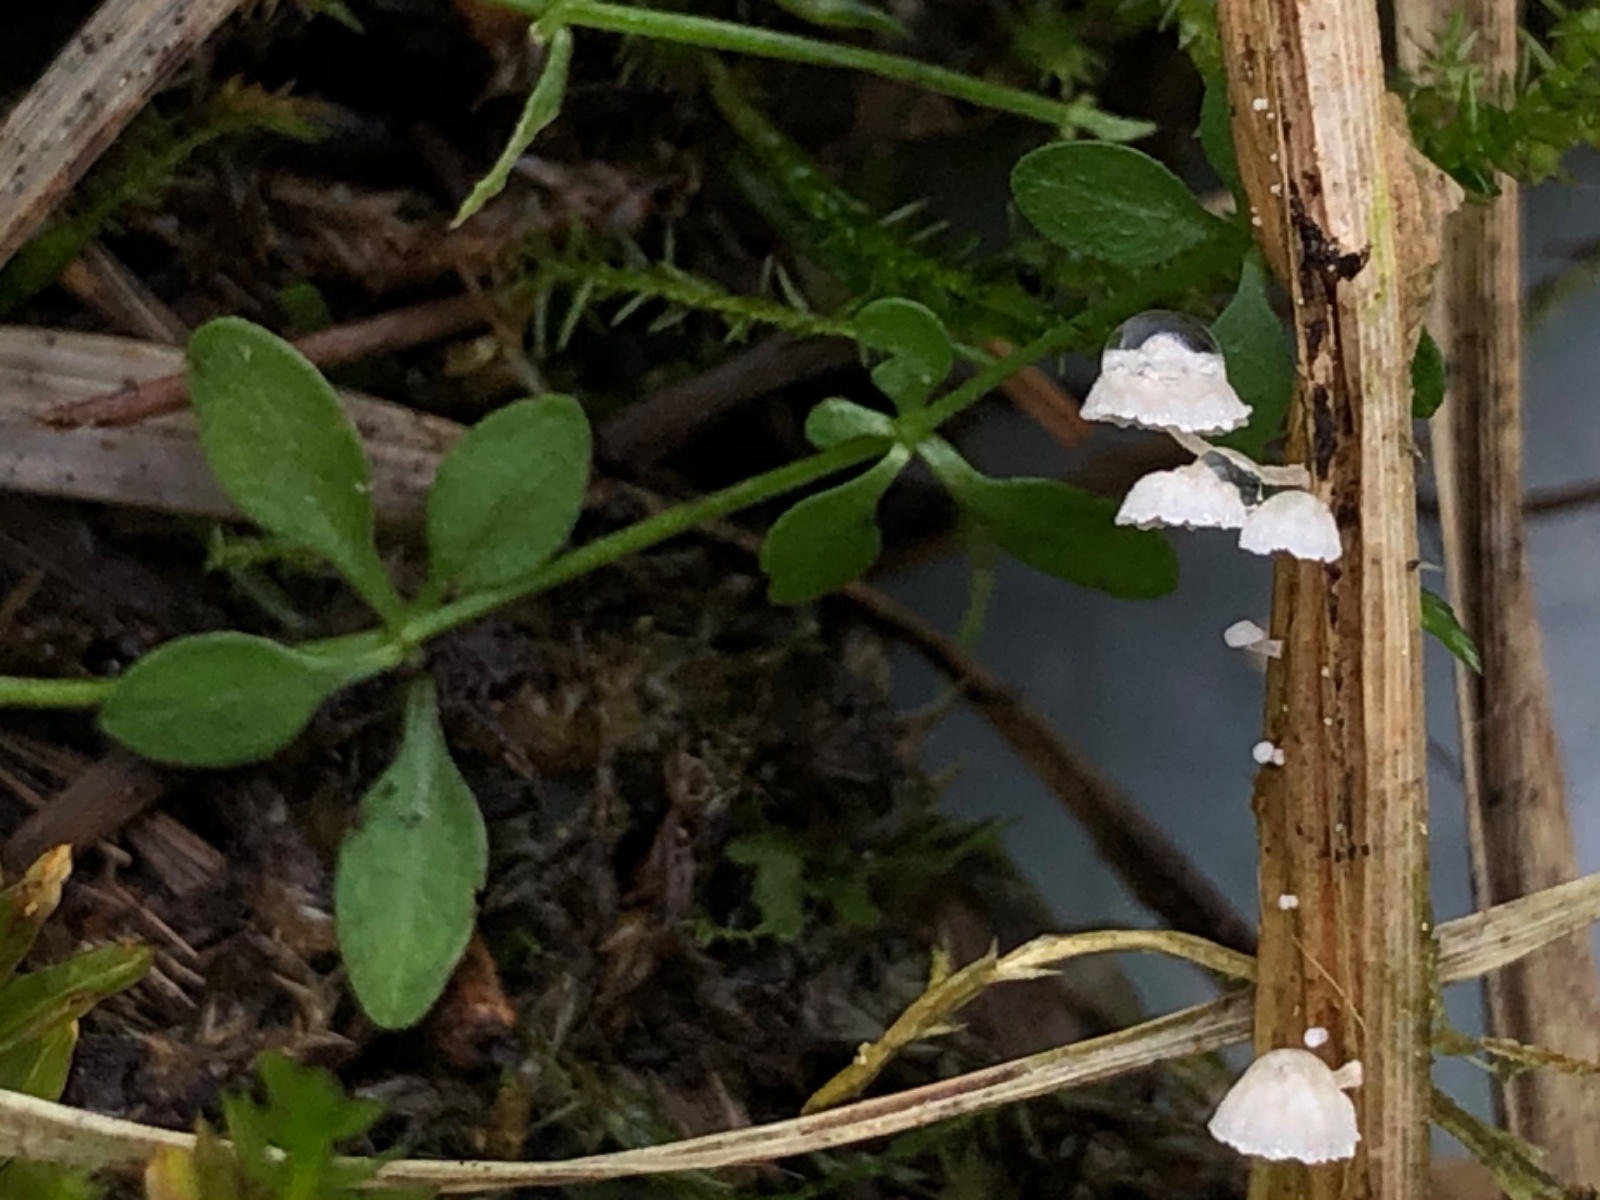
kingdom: Fungi
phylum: Basidiomycota
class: Agaricomycetes
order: Agaricales
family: Mycenaceae
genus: Resinomycena
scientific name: Resinomycena saccharifera
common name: sukkerhat
